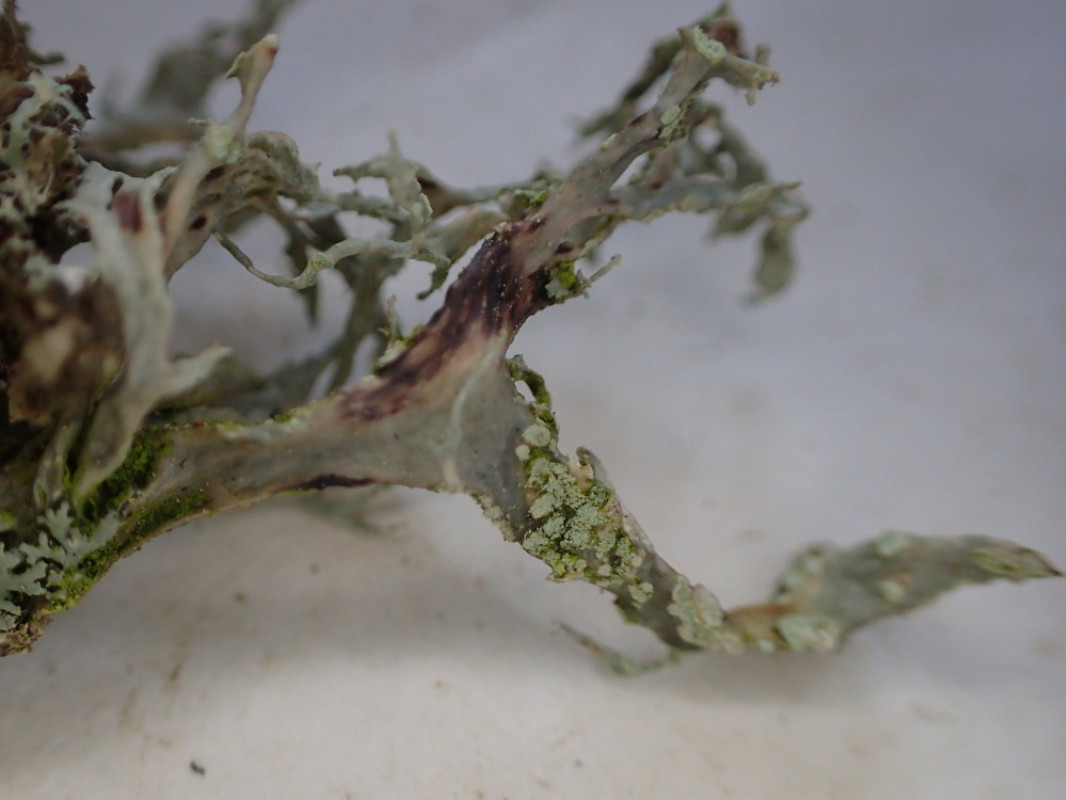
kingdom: Fungi
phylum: Ascomycota
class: Lecanoromycetes
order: Lecanorales
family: Ramalinaceae
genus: Ramalina
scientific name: Ramalina farinacea
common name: melet grenlav
